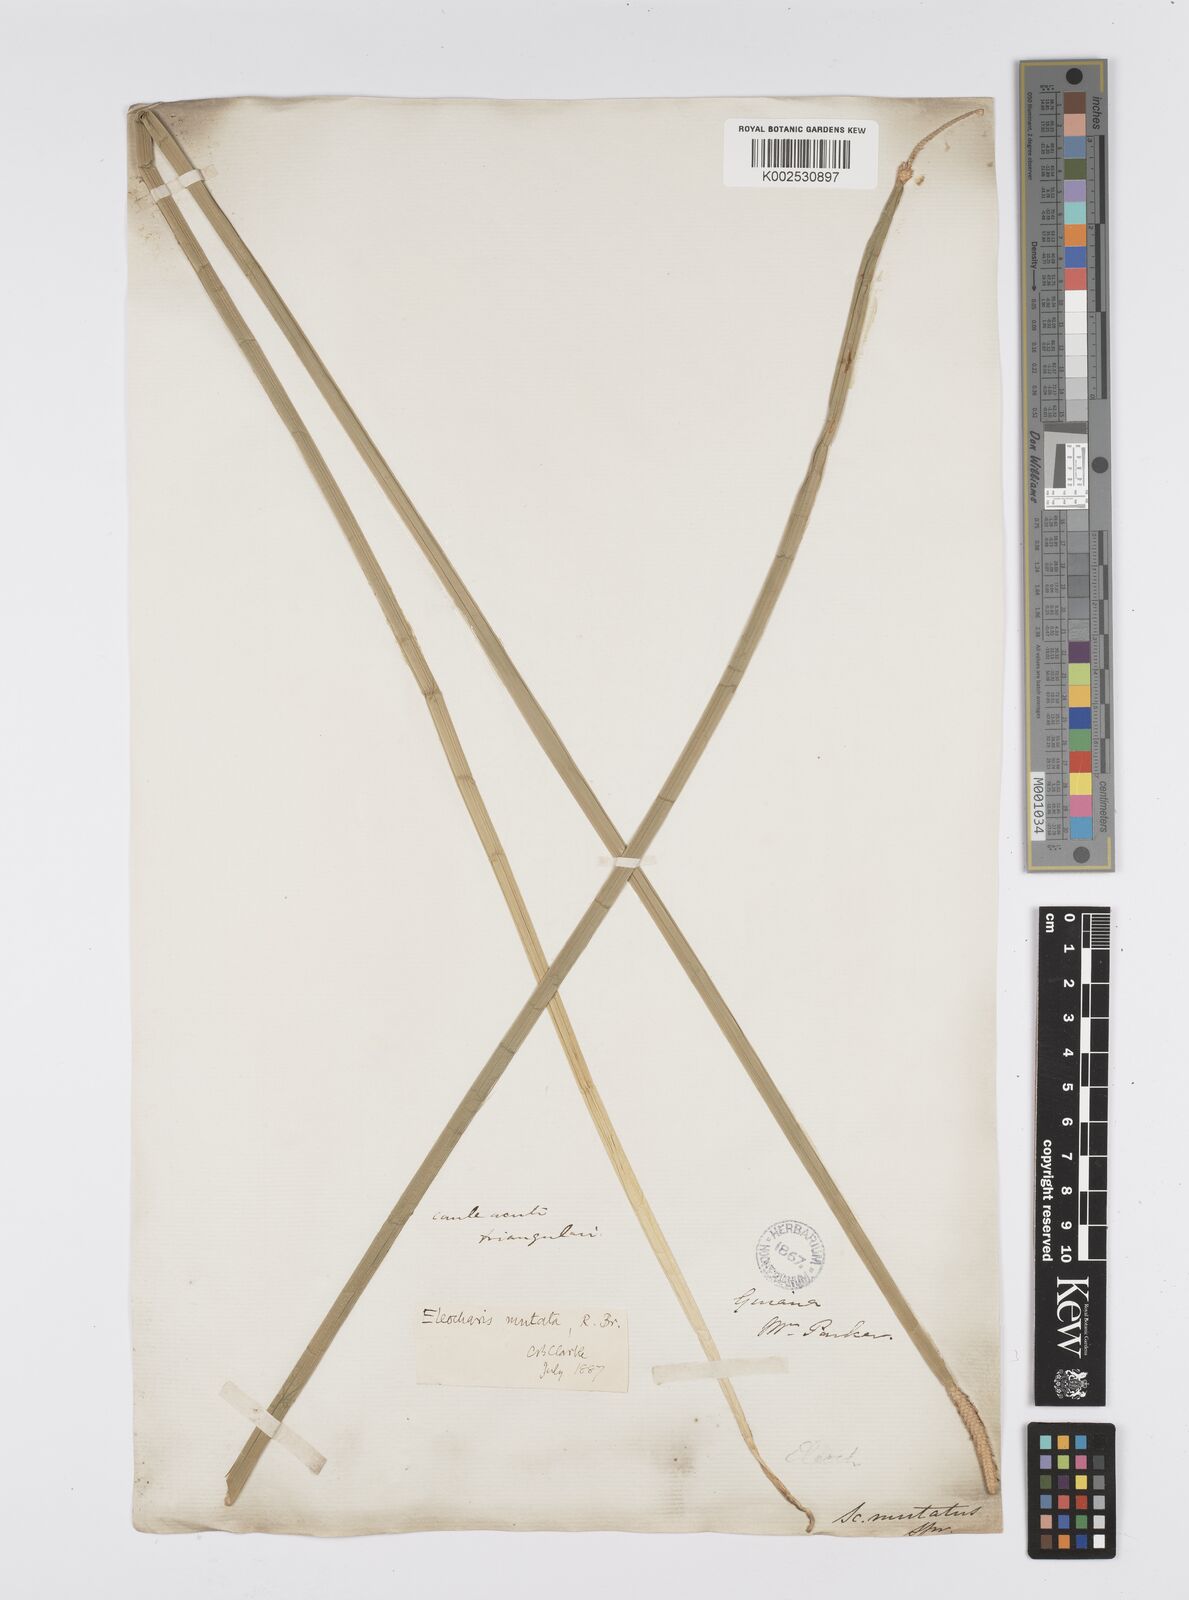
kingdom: Plantae
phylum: Tracheophyta
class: Liliopsida
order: Poales
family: Cyperaceae
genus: Eleocharis
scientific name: Eleocharis mutata
